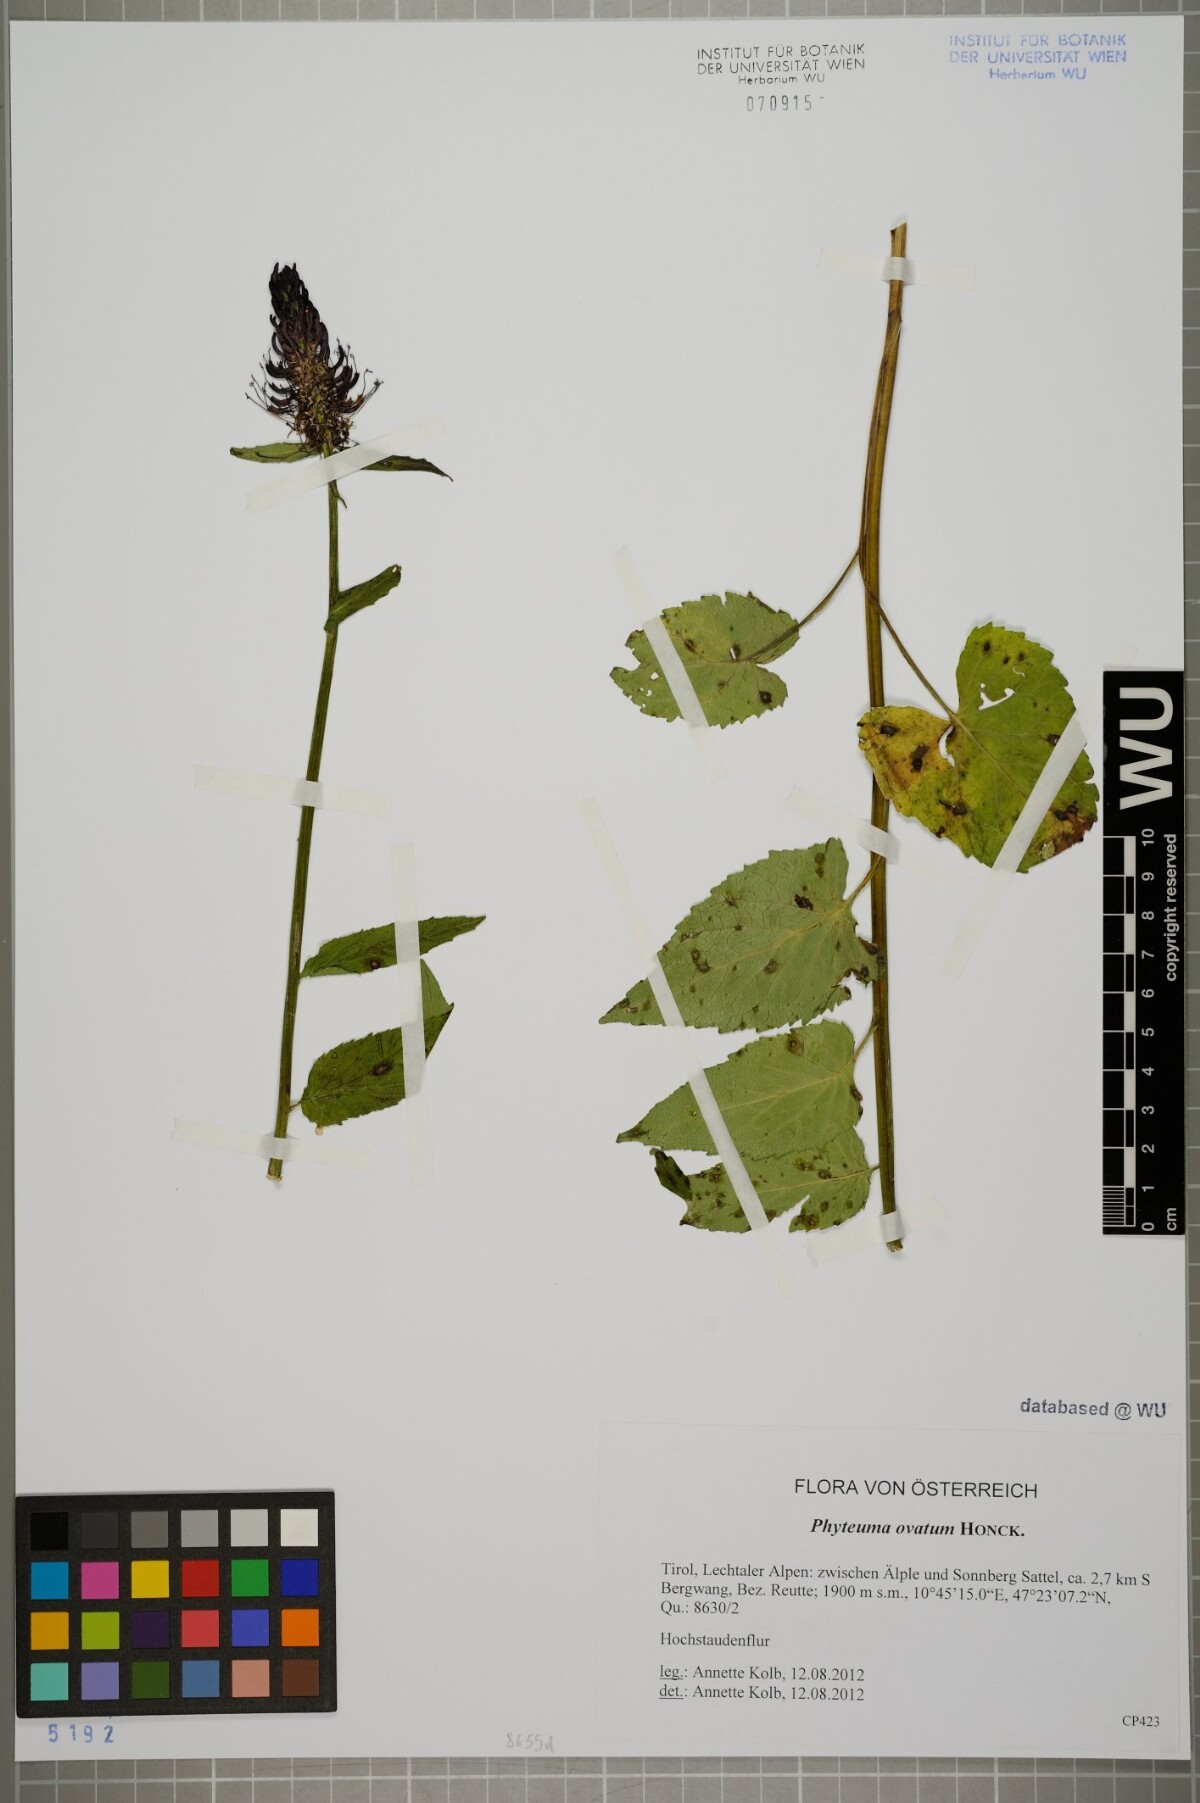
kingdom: Plantae
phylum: Tracheophyta
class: Magnoliopsida
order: Asterales
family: Campanulaceae
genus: Phyteuma
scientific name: Phyteuma ovatum
